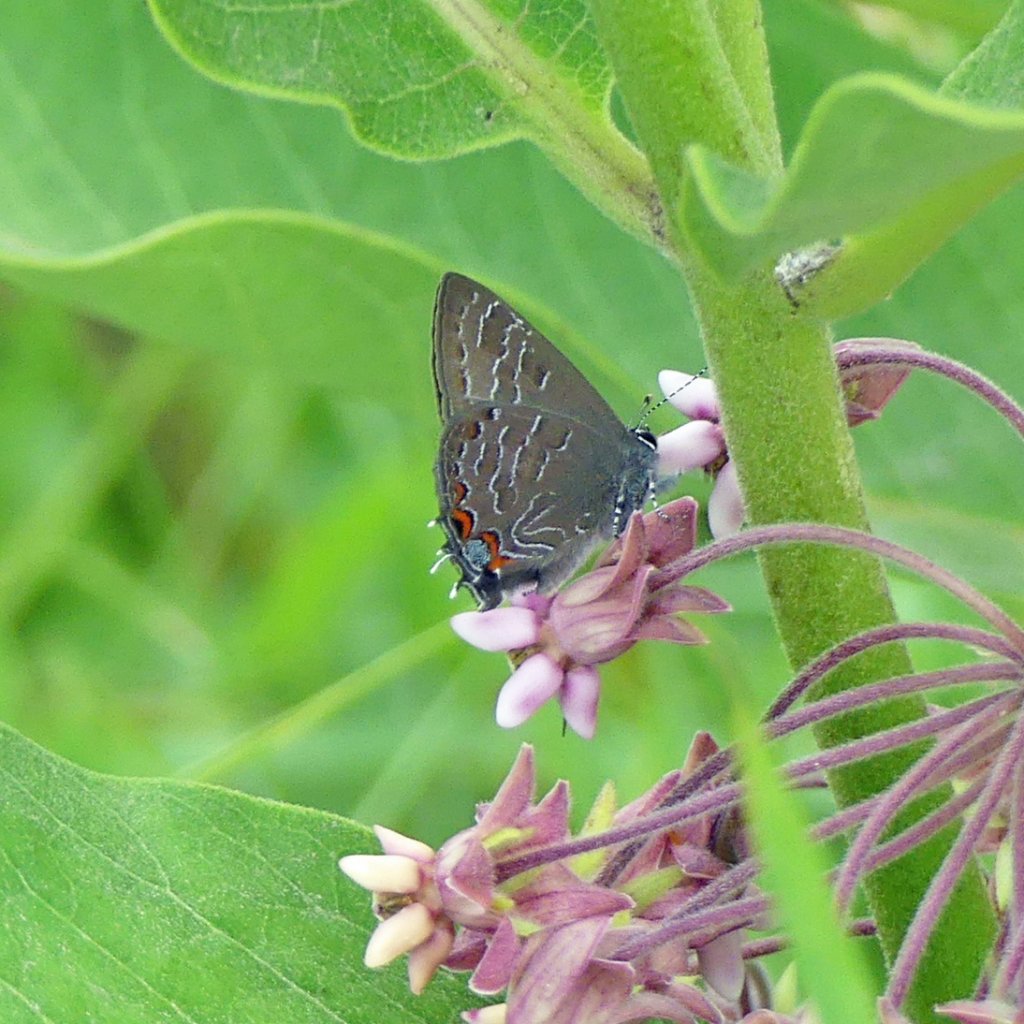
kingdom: Animalia
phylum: Arthropoda
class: Insecta
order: Lepidoptera
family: Lycaenidae
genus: Satyrium
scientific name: Satyrium liparops
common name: Striped Hairstreak
